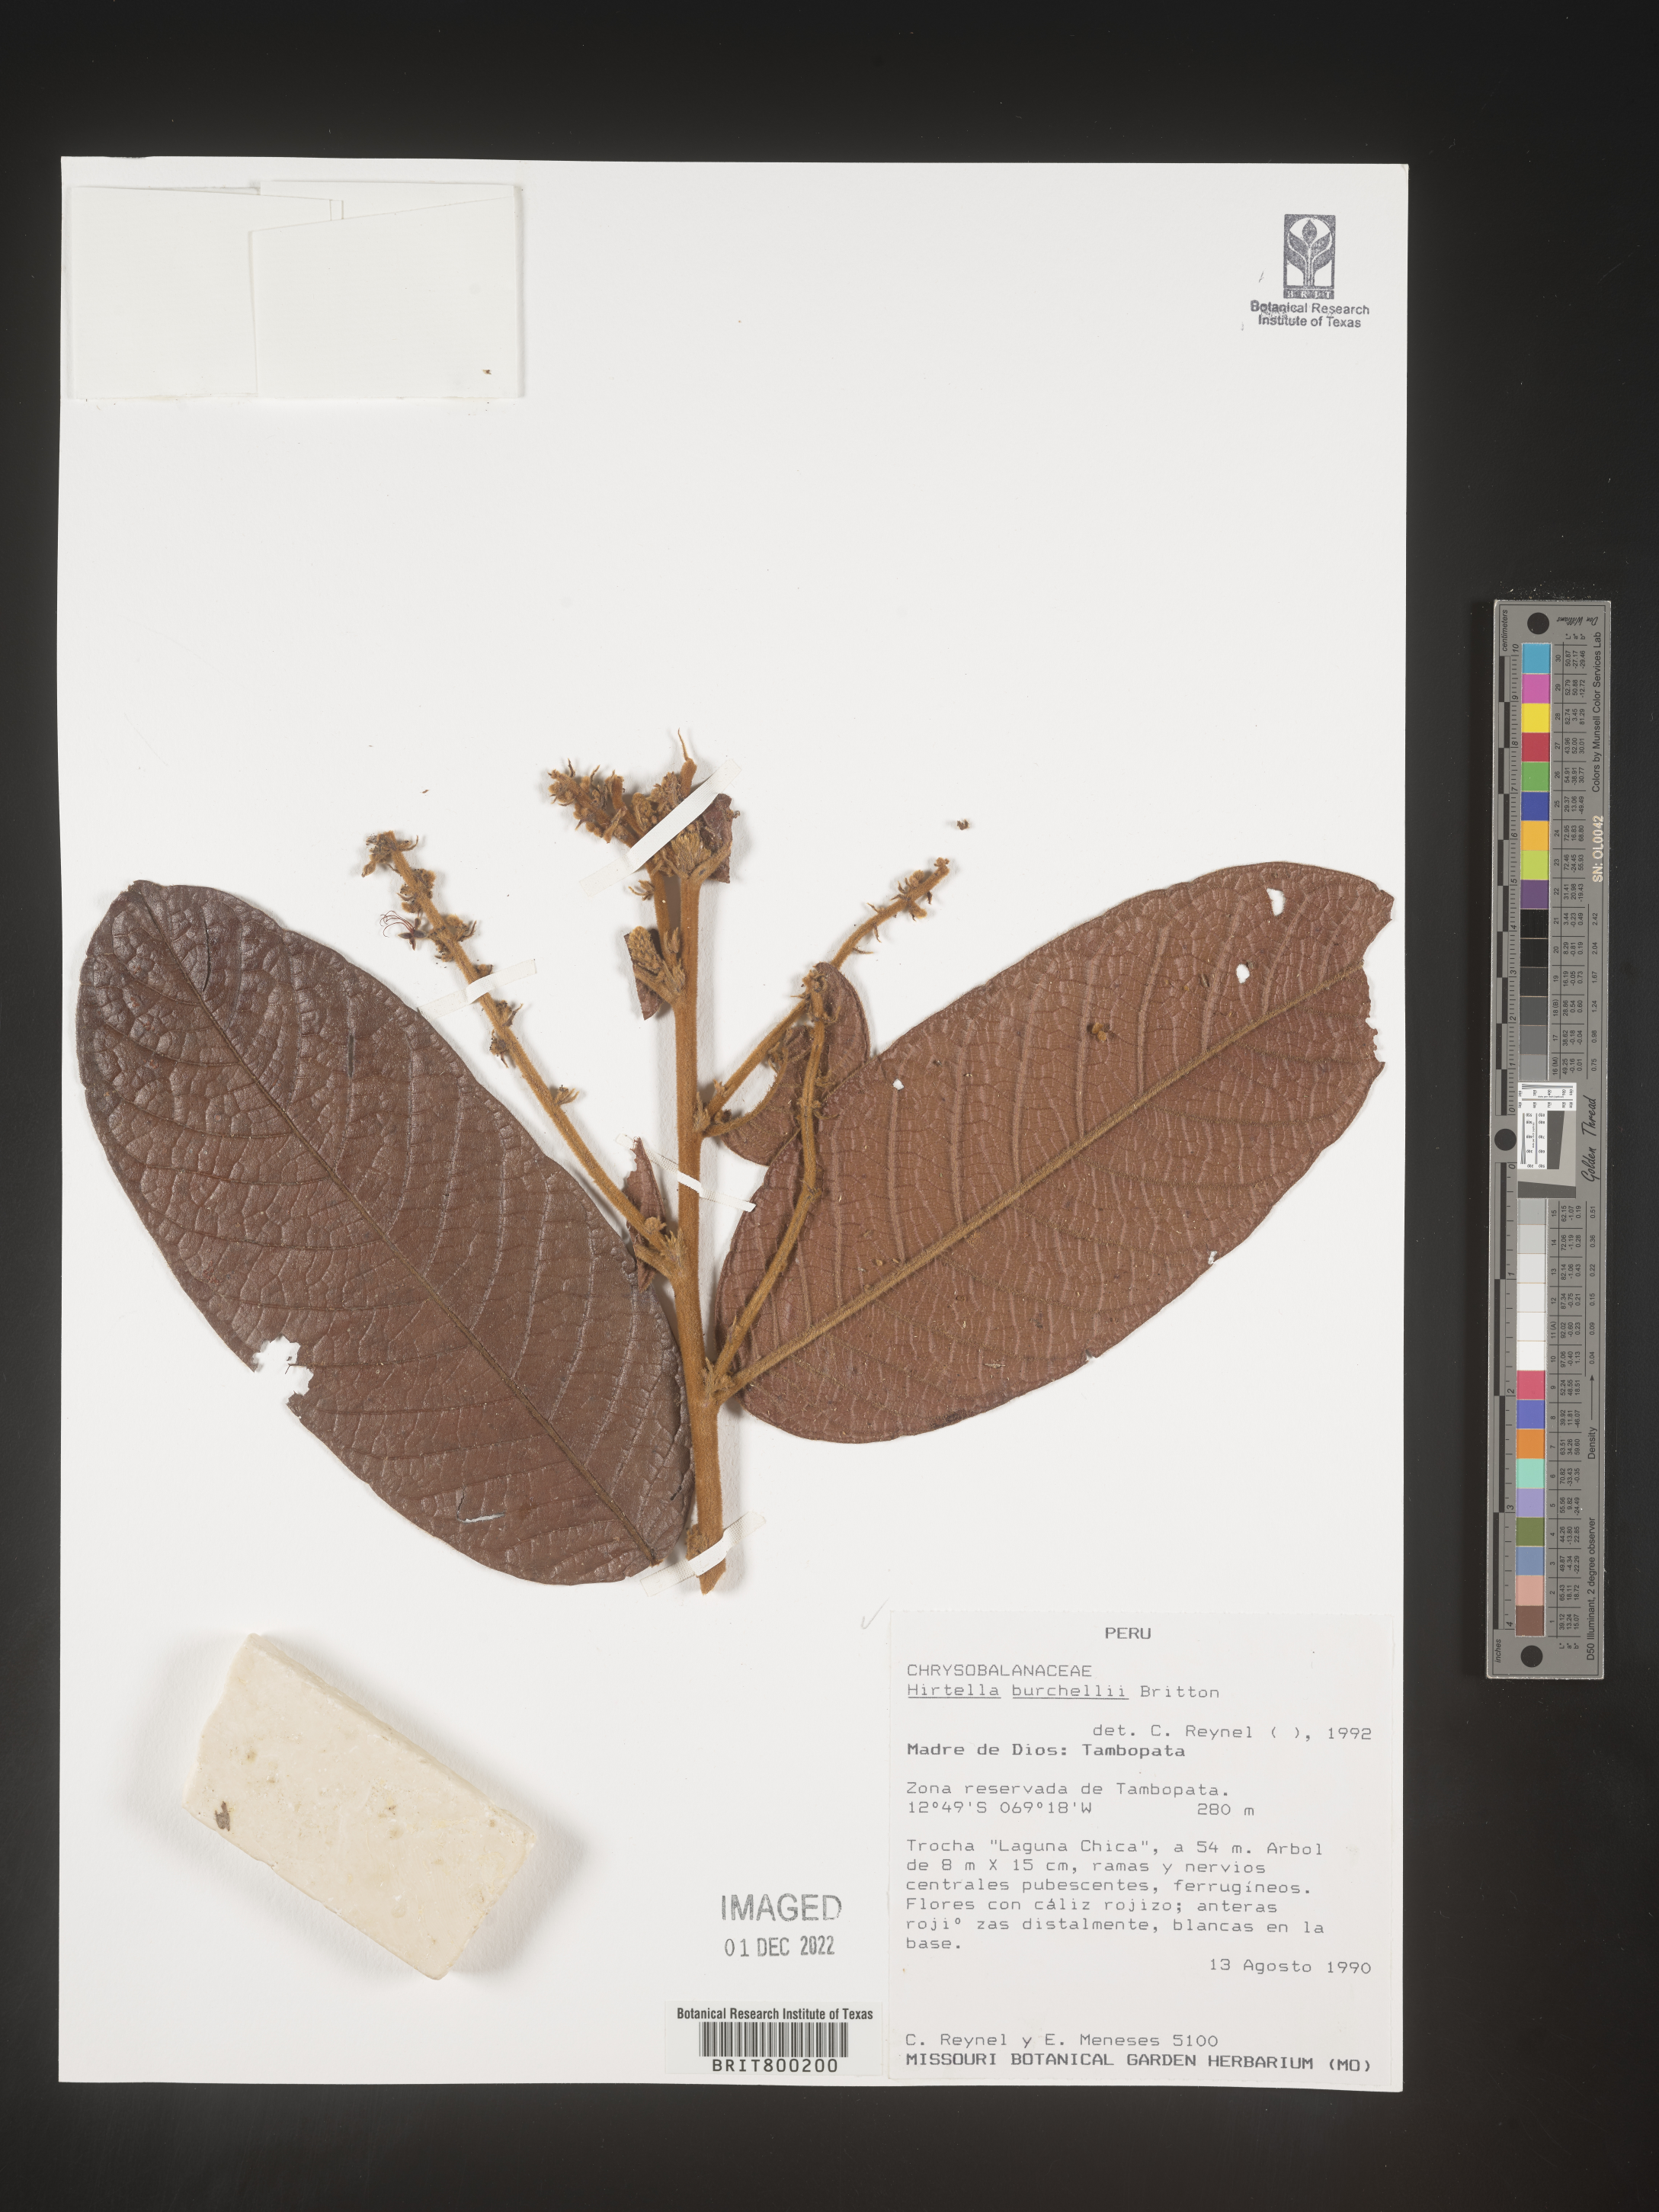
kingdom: Plantae
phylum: Tracheophyta
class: Magnoliopsida
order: Malpighiales
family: Chrysobalanaceae
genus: Hirtella
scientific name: Hirtella
